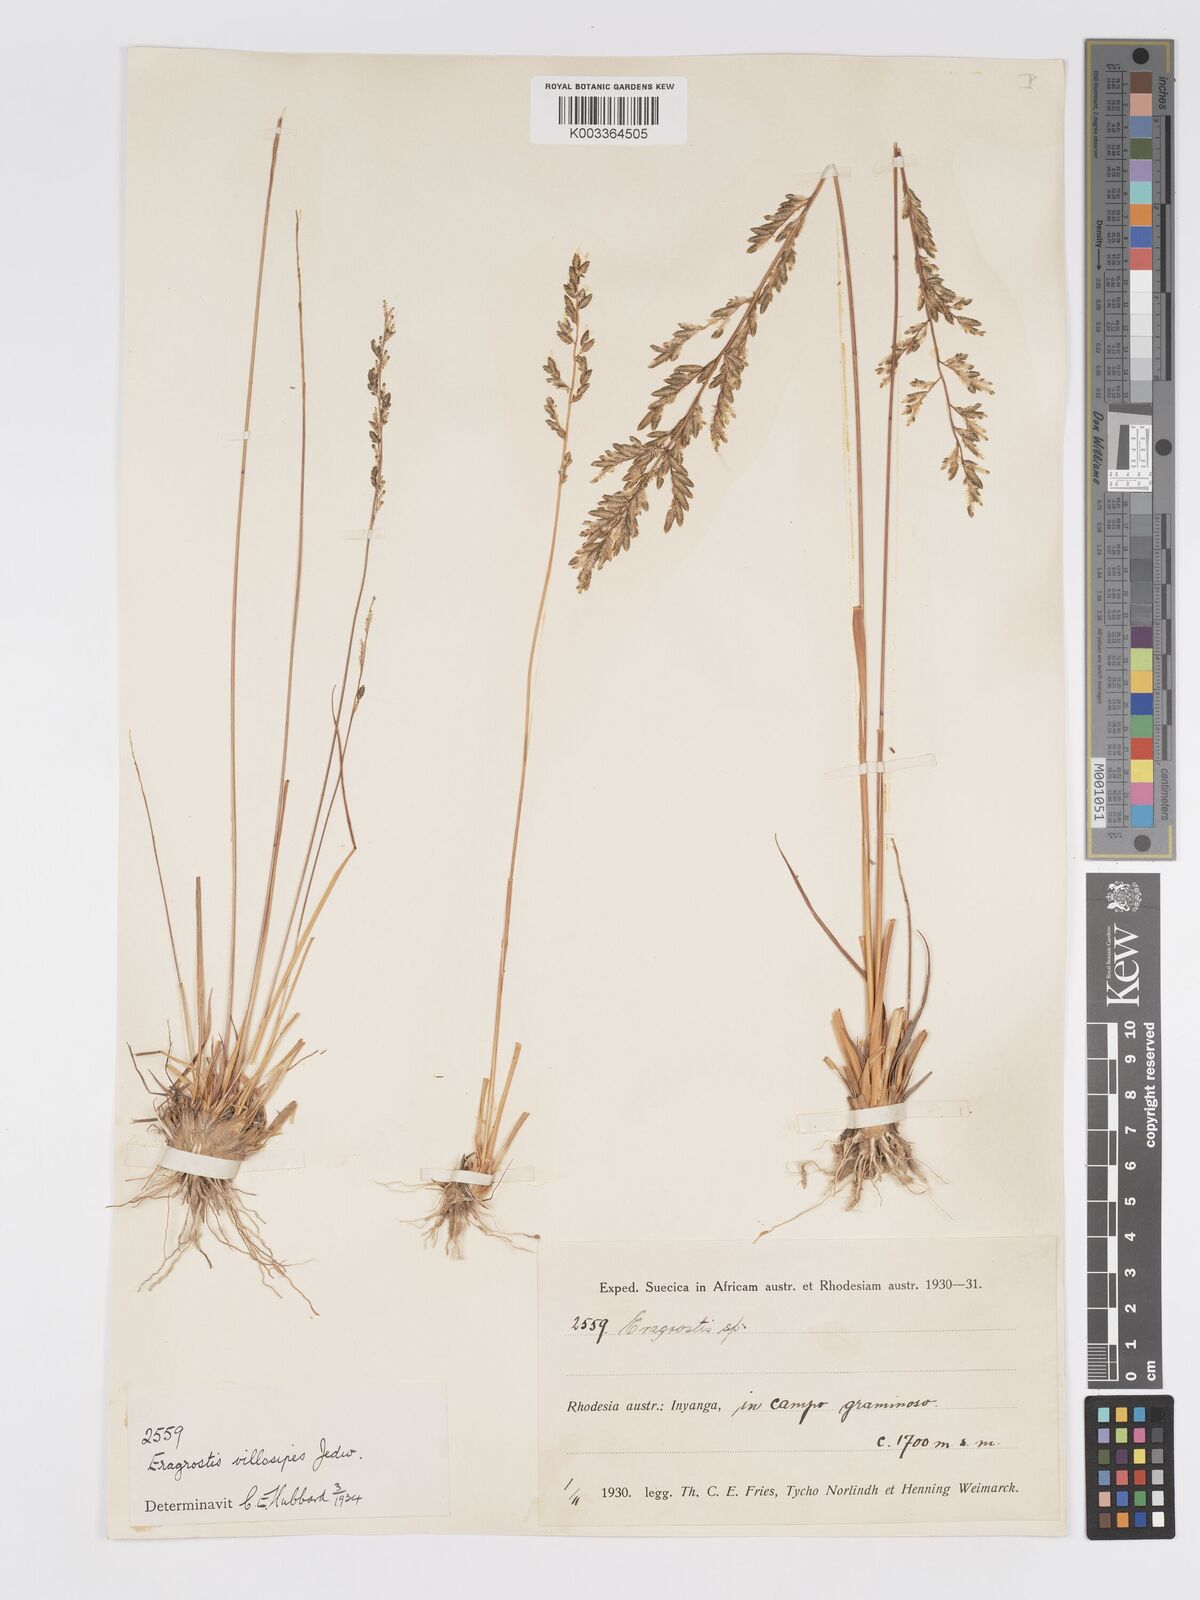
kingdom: Plantae
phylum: Tracheophyta
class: Liliopsida
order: Poales
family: Poaceae
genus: Eragrostis
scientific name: Eragrostis sclerantha
